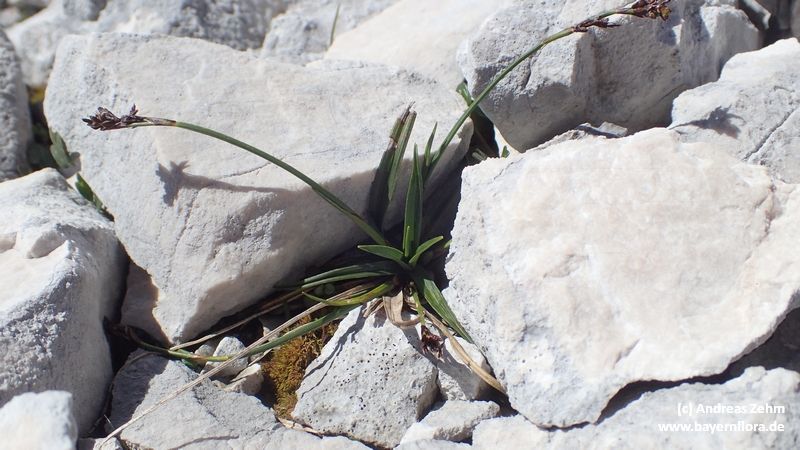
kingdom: Plantae
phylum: Tracheophyta
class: Liliopsida
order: Poales
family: Cyperaceae
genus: Carex
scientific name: Carex ornithopoda
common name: Bird's-foot sedge
